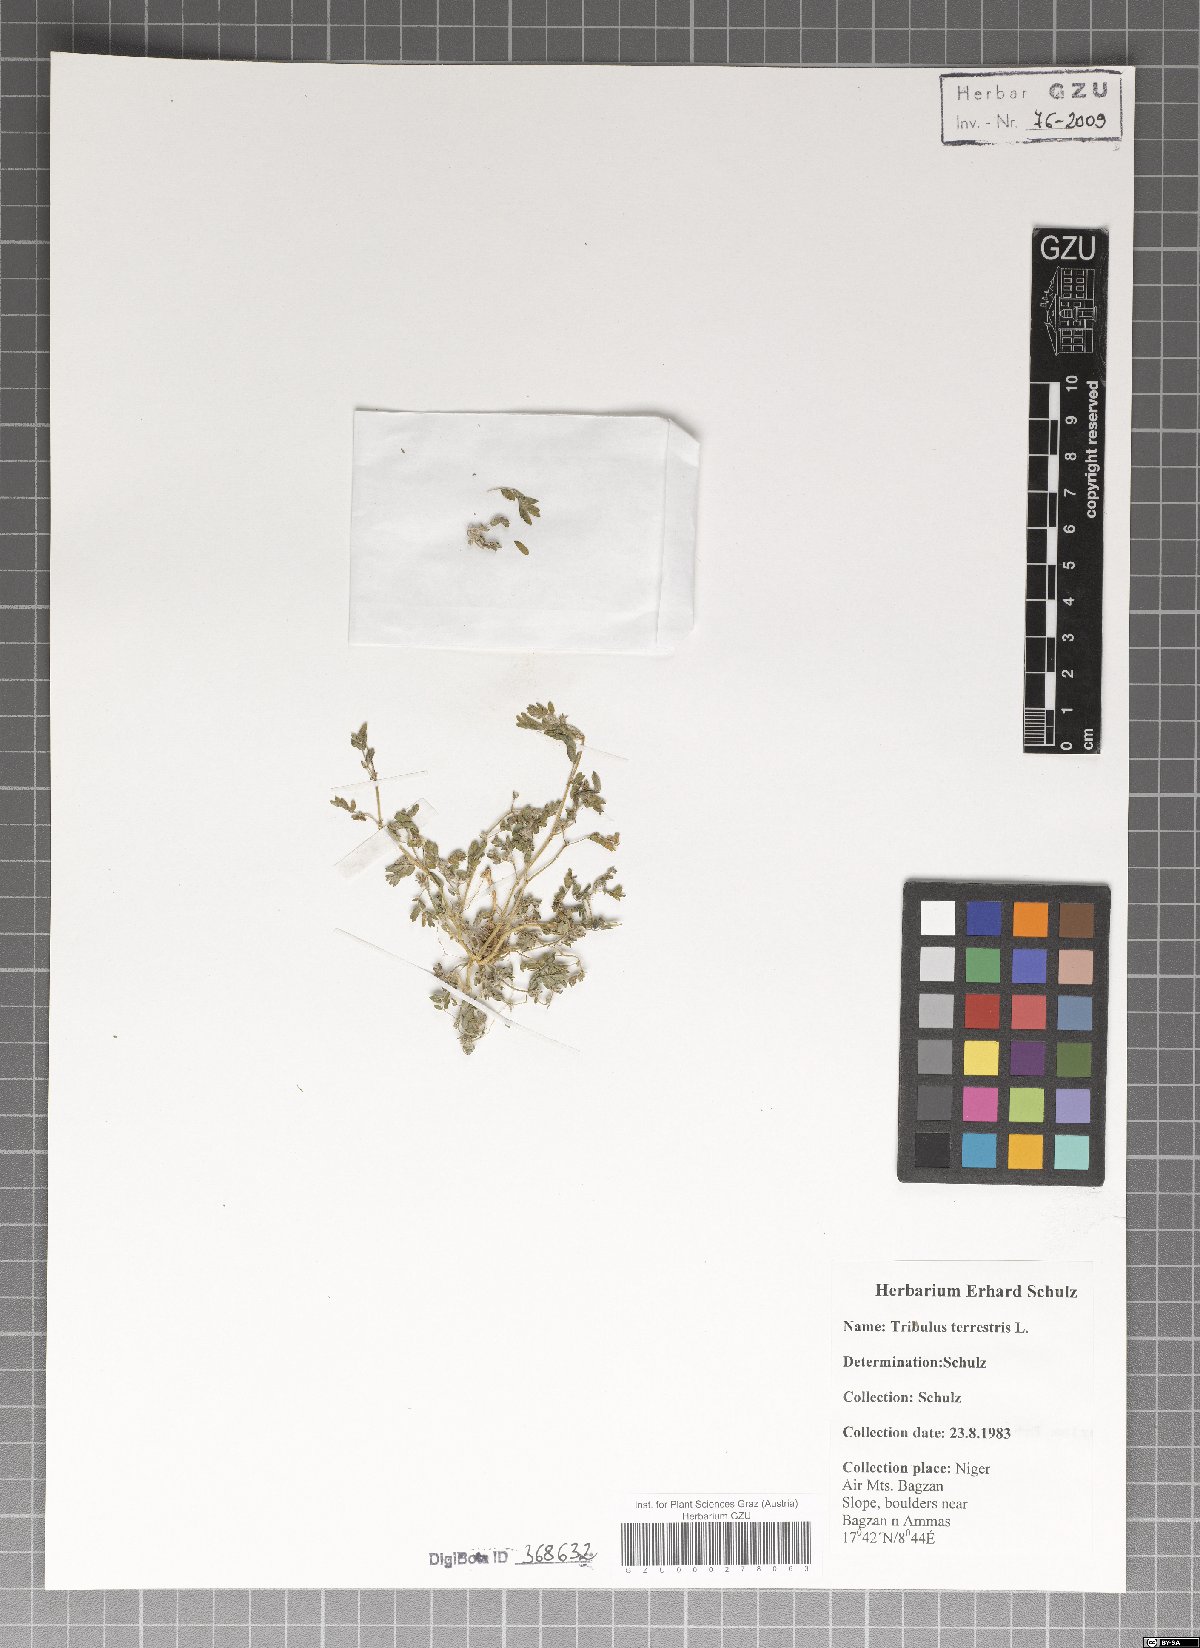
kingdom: Plantae
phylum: Tracheophyta
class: Magnoliopsida
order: Zygophyllales
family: Zygophyllaceae
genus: Tribulus
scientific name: Tribulus terrestris
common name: Puncturevine
